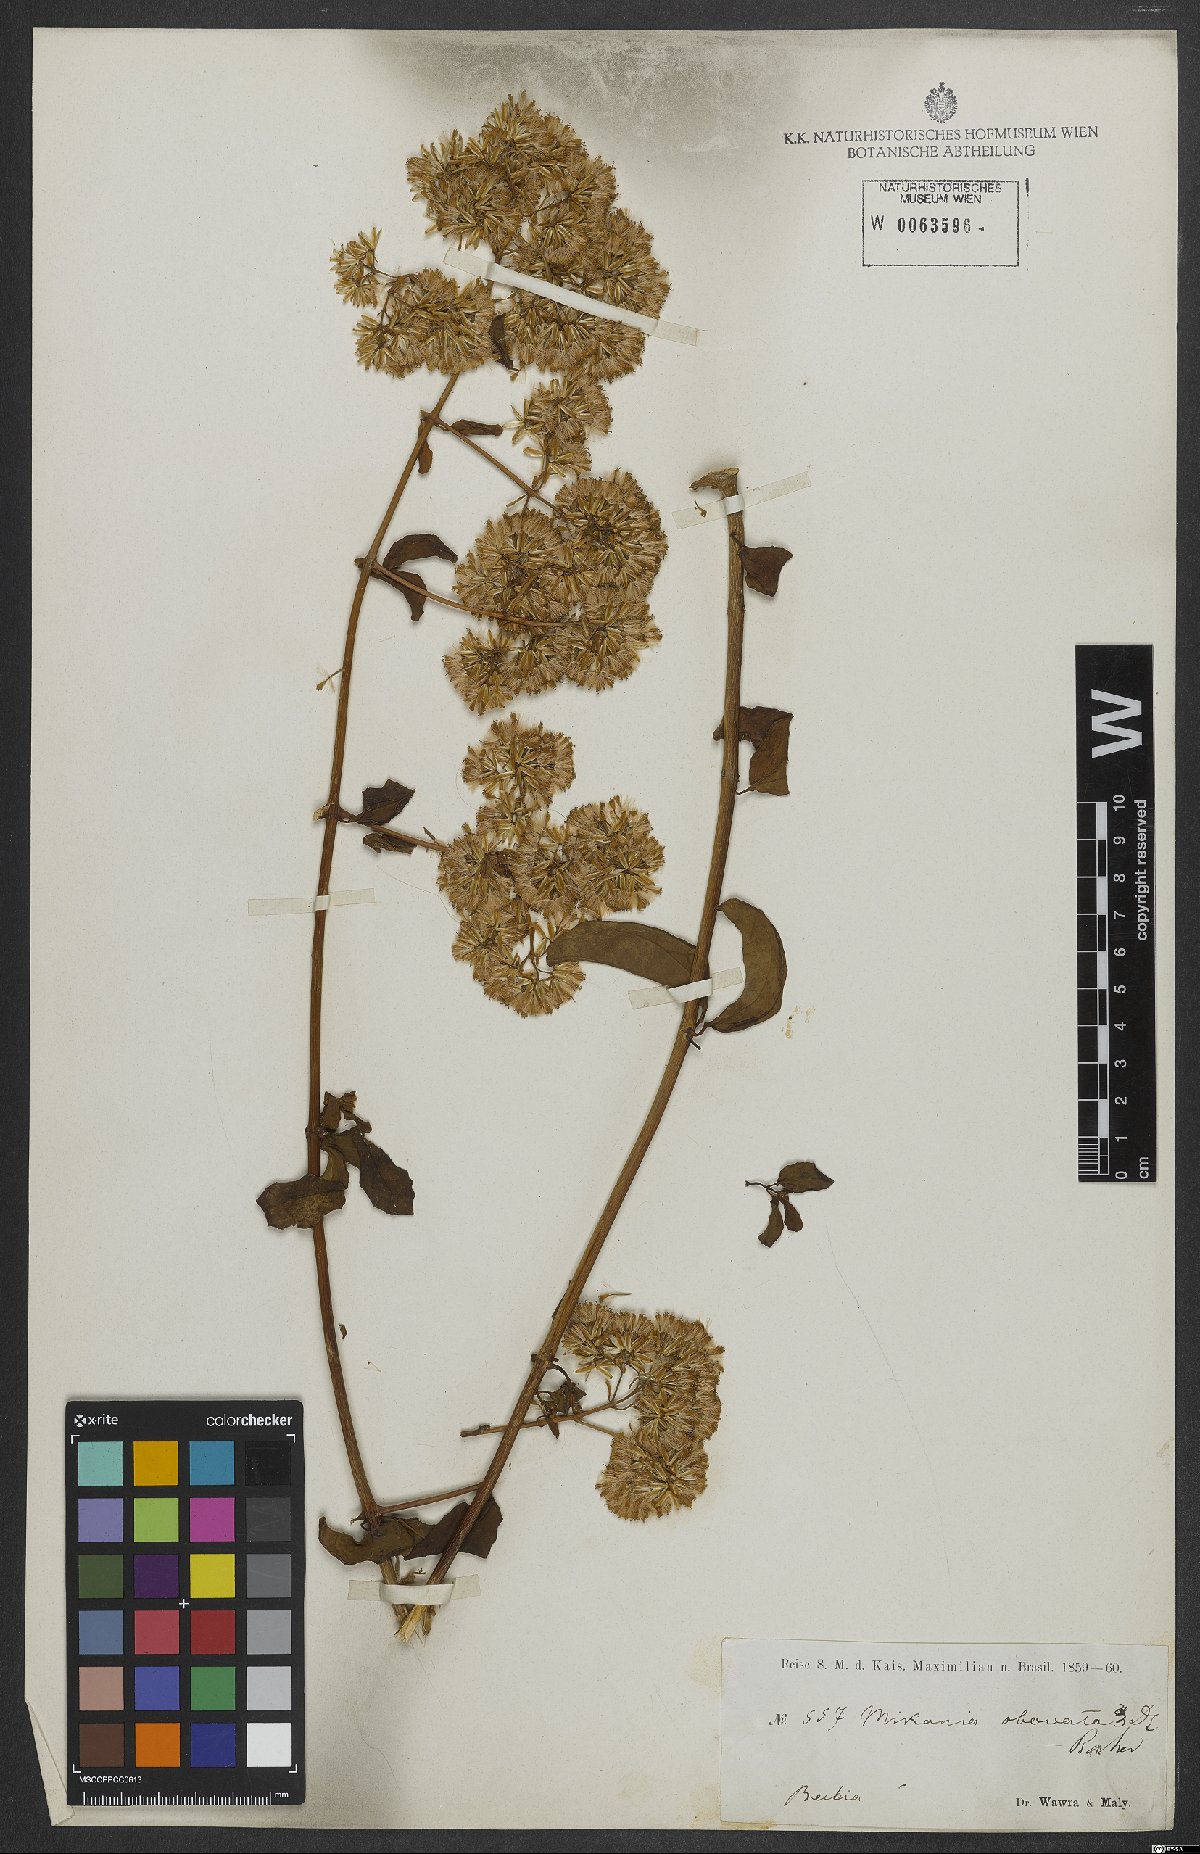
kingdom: Plantae
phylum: Tracheophyta
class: Magnoliopsida
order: Asterales
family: Asteraceae
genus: Mikania
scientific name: Mikania obovata
